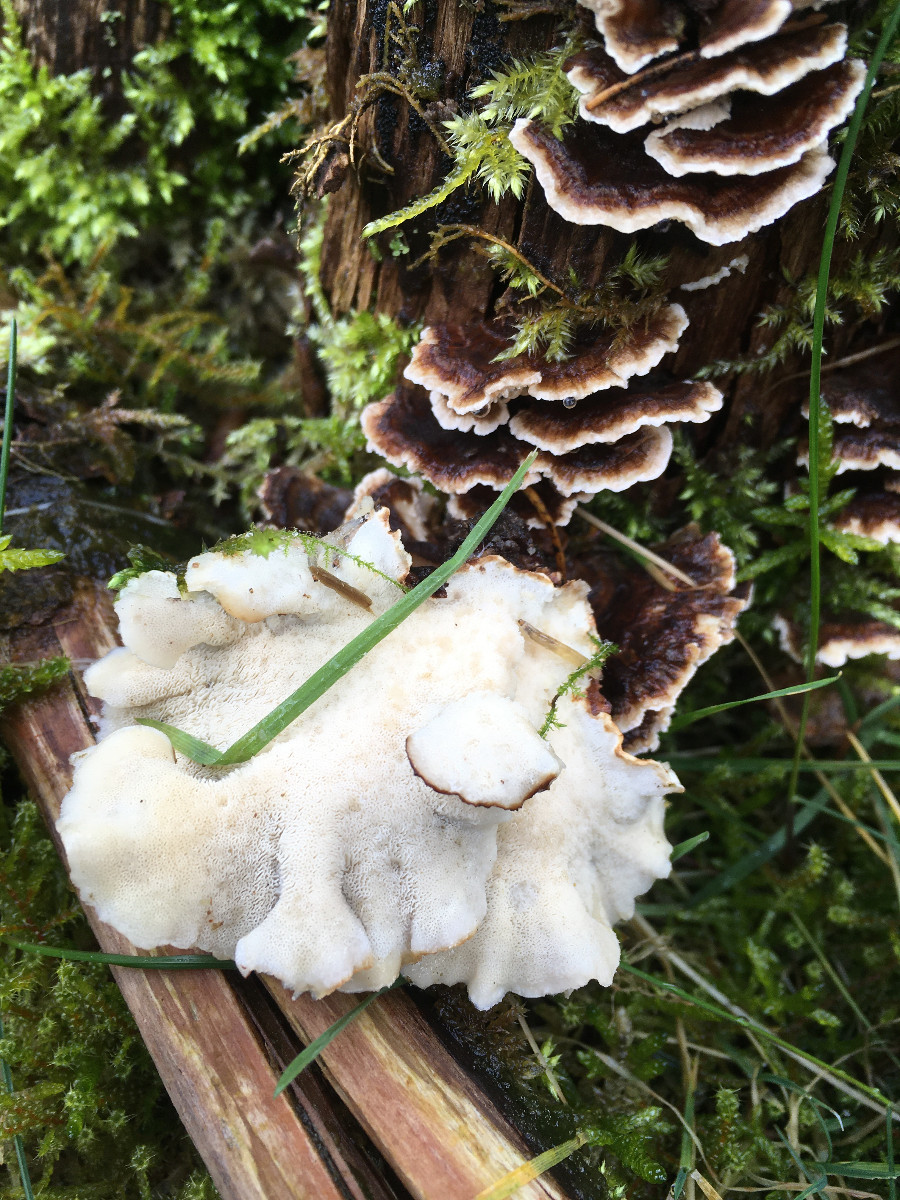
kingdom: Fungi
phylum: Basidiomycota
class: Agaricomycetes
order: Polyporales
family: Polyporaceae
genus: Trametes
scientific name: Trametes versicolor
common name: broget læderporesvamp
